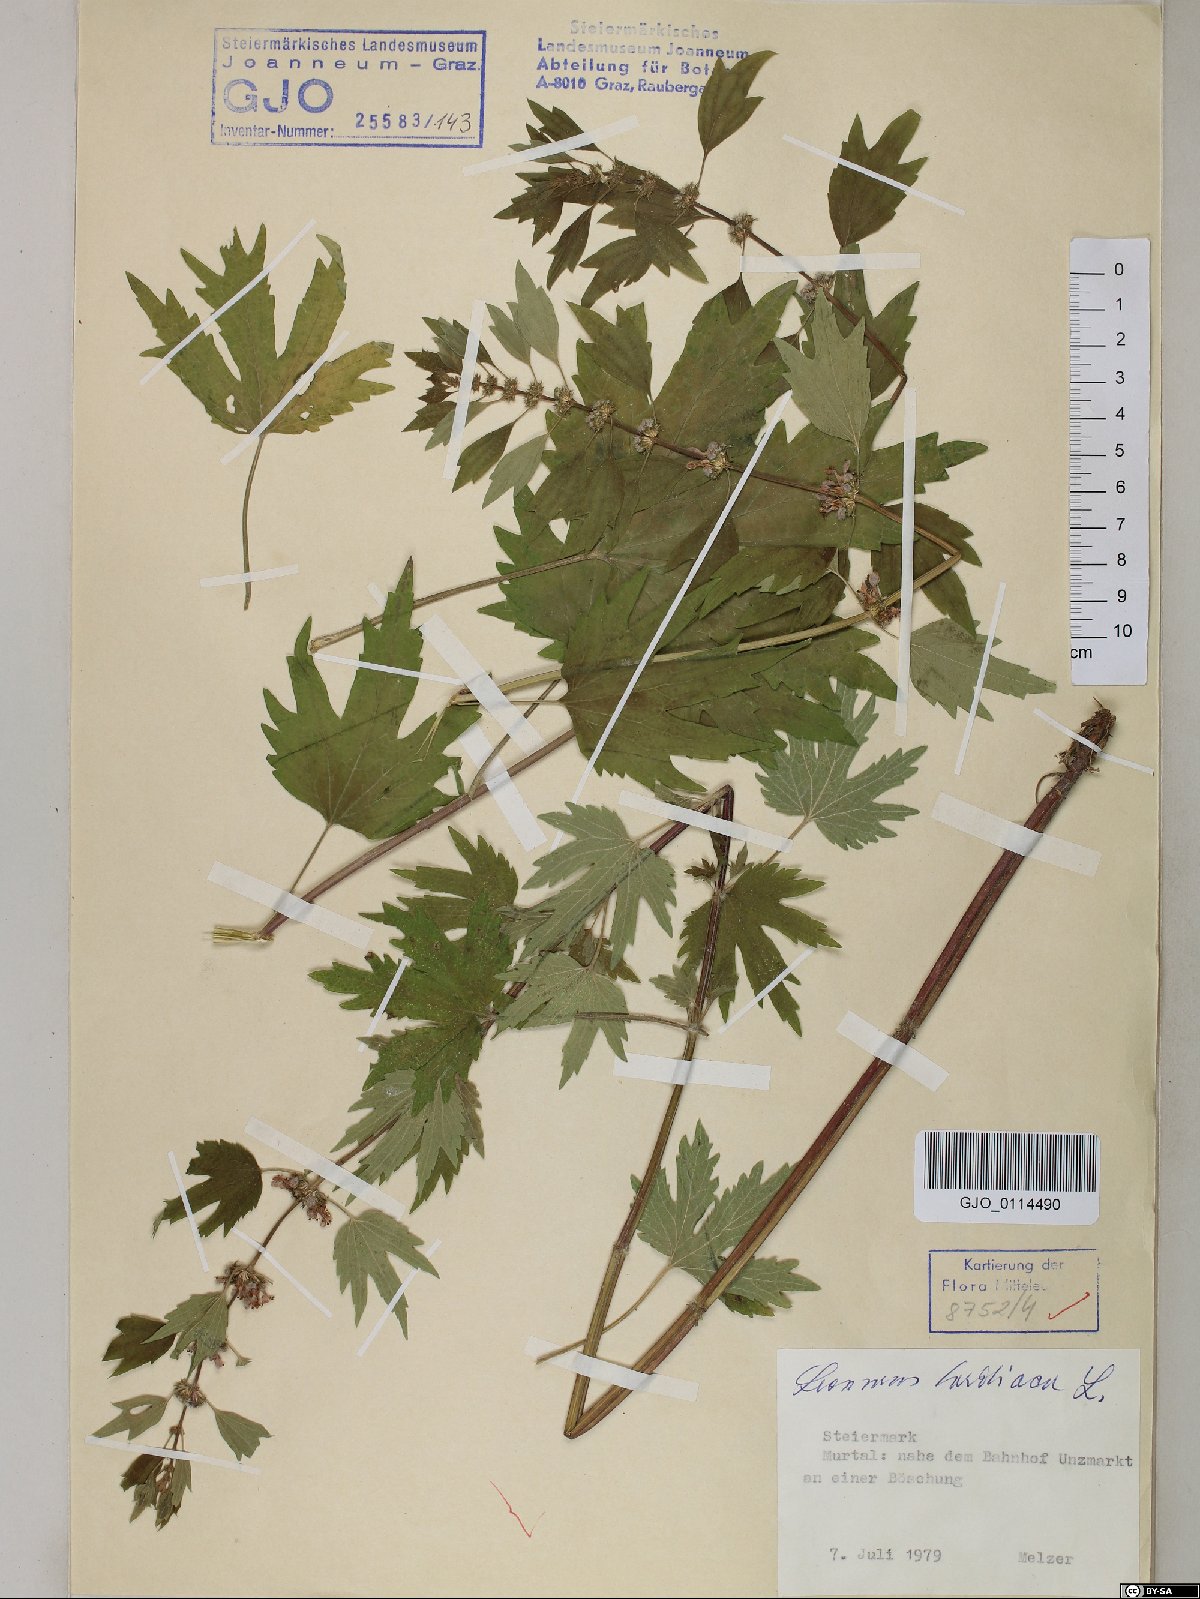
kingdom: Plantae
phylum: Tracheophyta
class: Magnoliopsida
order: Lamiales
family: Lamiaceae
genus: Leonurus
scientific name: Leonurus cardiaca
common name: Motherwort
